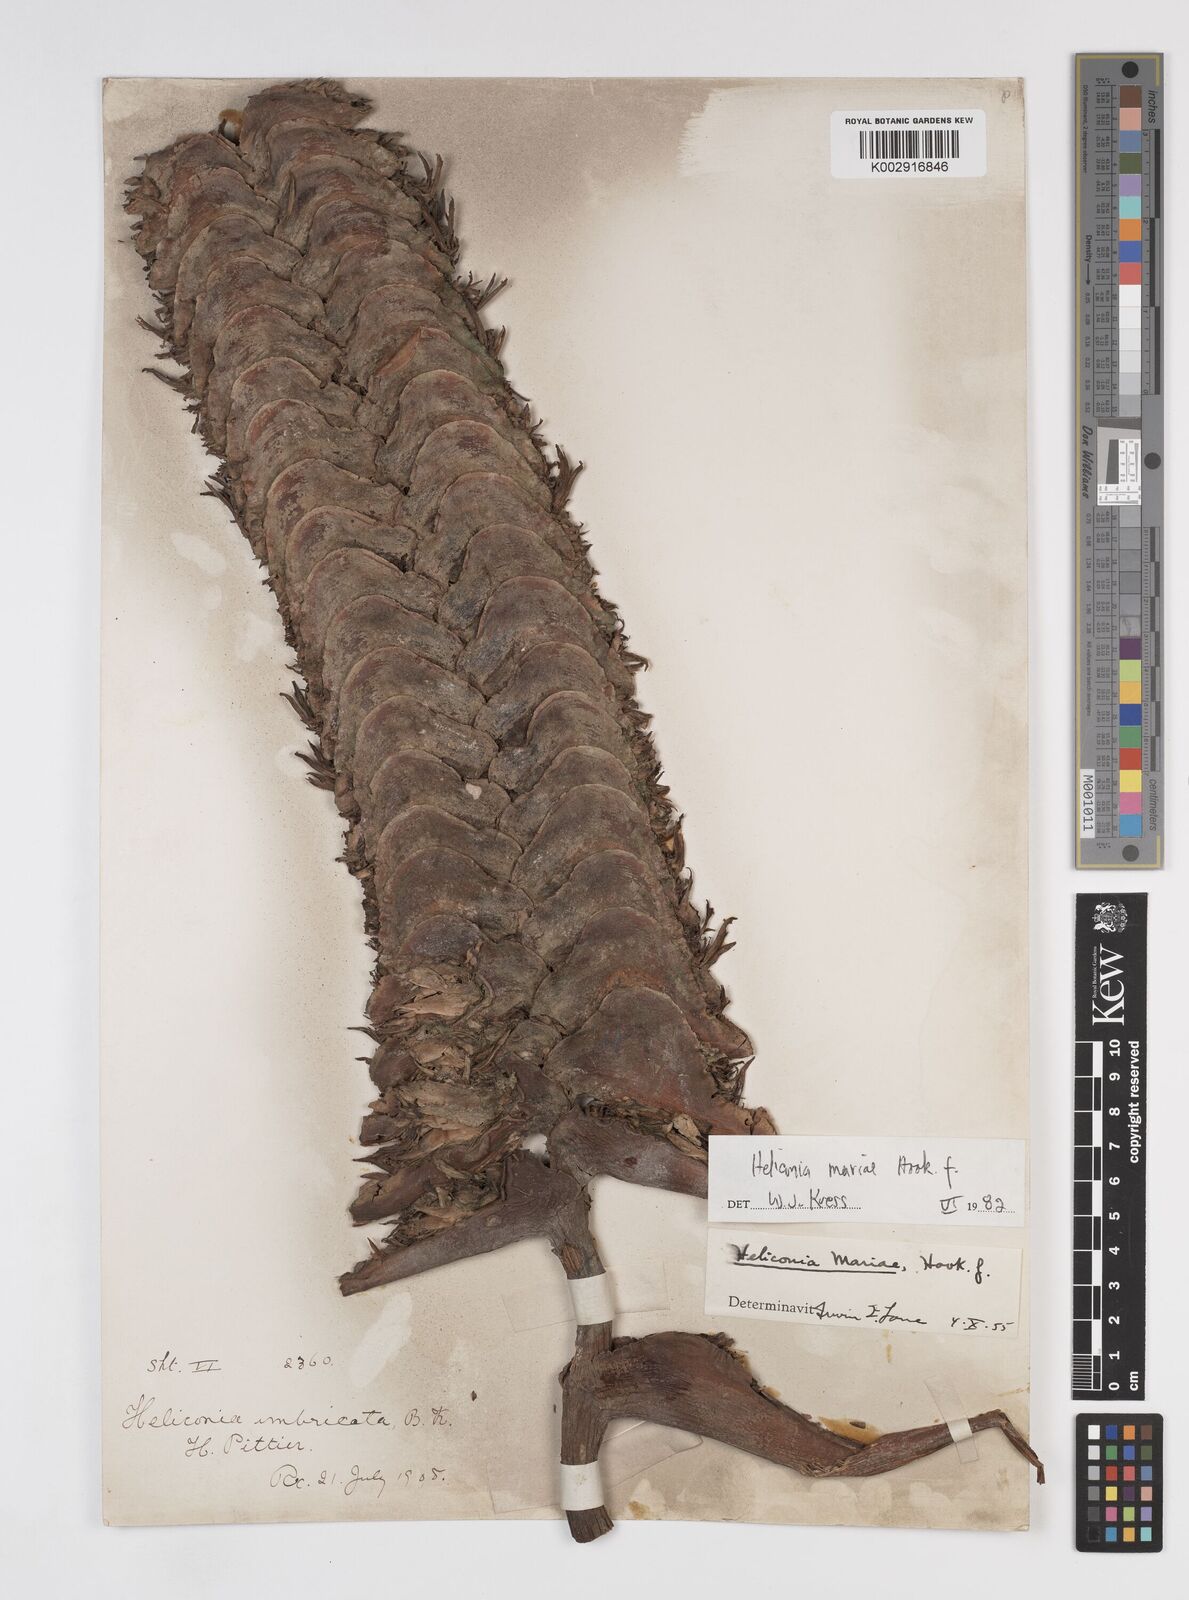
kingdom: Plantae
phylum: Tracheophyta
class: Liliopsida
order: Zingiberales
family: Heliconiaceae
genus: Heliconia
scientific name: Heliconia
